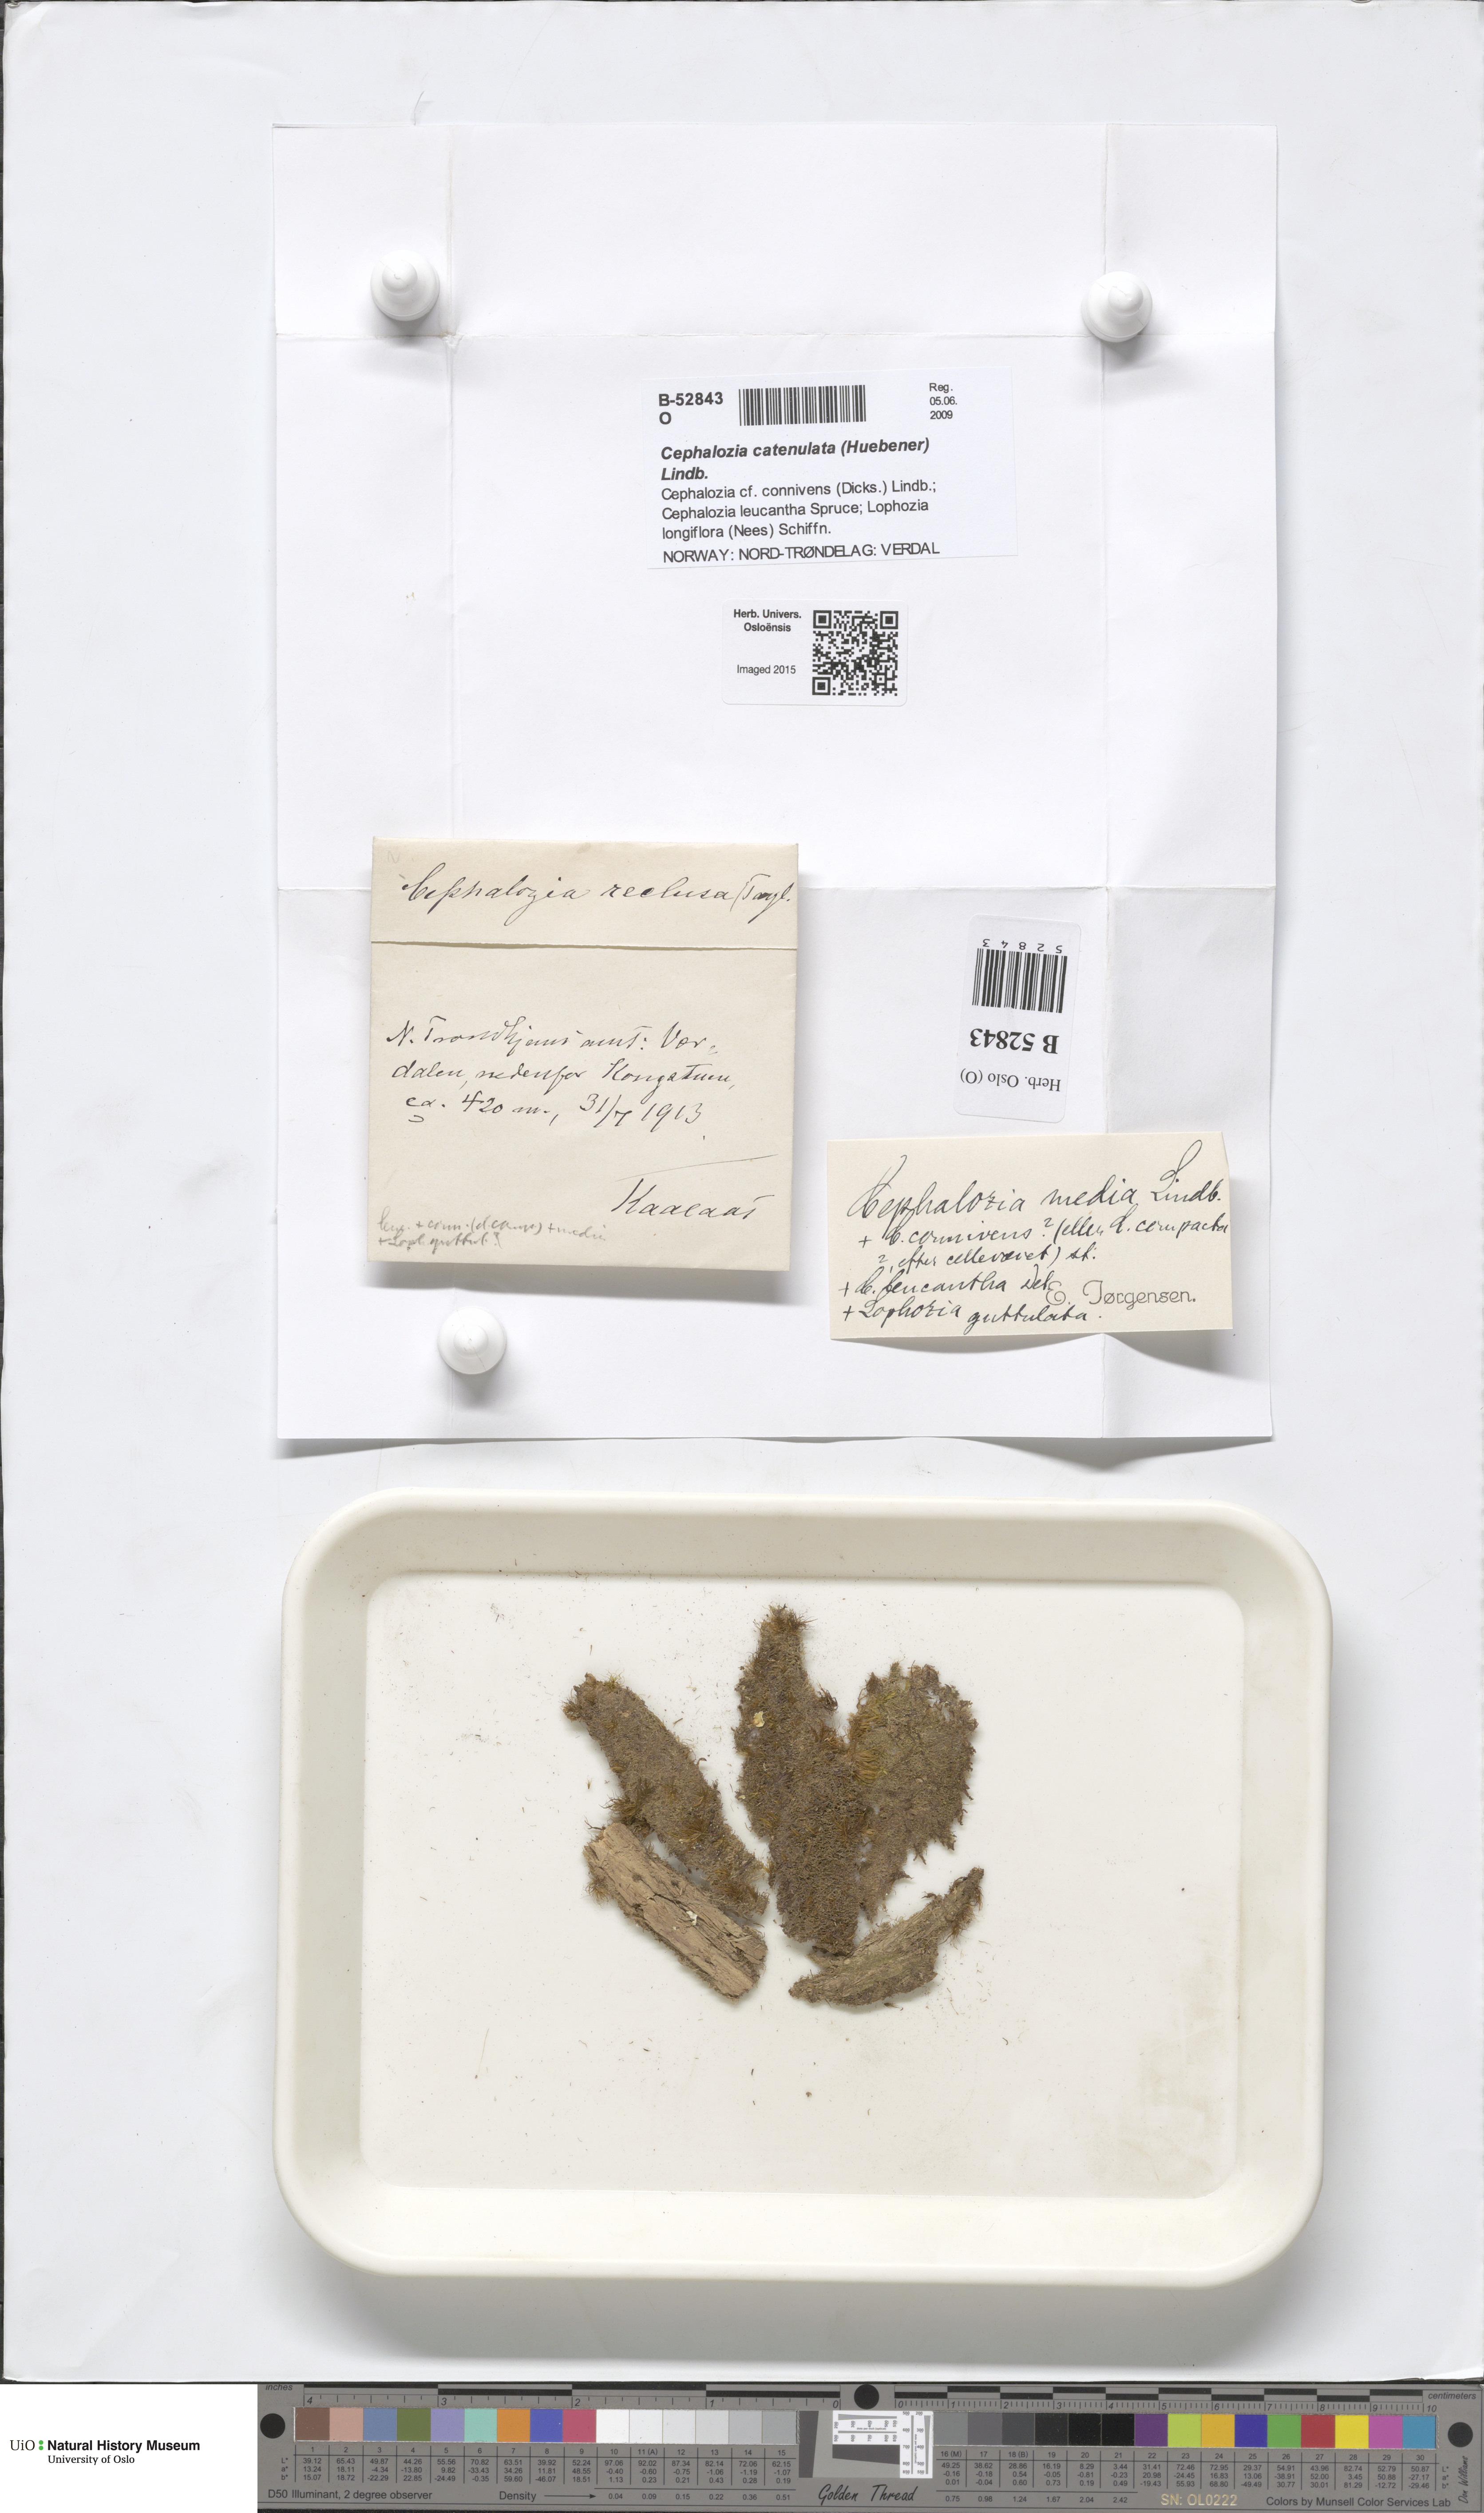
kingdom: Plantae
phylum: Marchantiophyta
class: Jungermanniopsida
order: Jungermanniales
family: Cephaloziaceae
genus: Fuscocephaloziopsis
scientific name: Fuscocephaloziopsis lunulifolia
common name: Moon-leaved pincerwort
